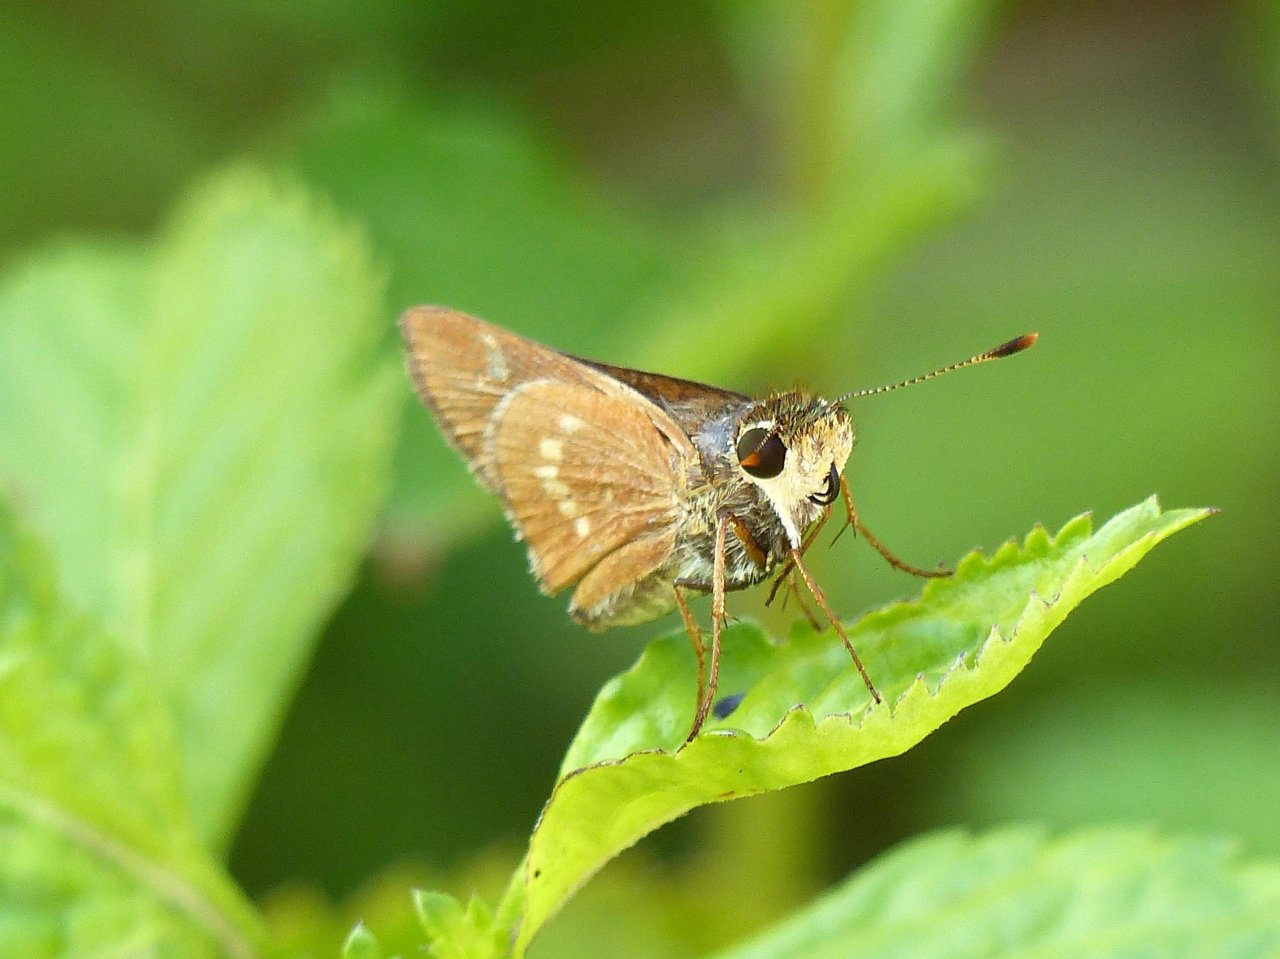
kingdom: Animalia
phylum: Arthropoda
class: Insecta
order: Lepidoptera
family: Hesperiidae
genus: Mellana
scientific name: Mellana eulogius
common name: Common Mellana
